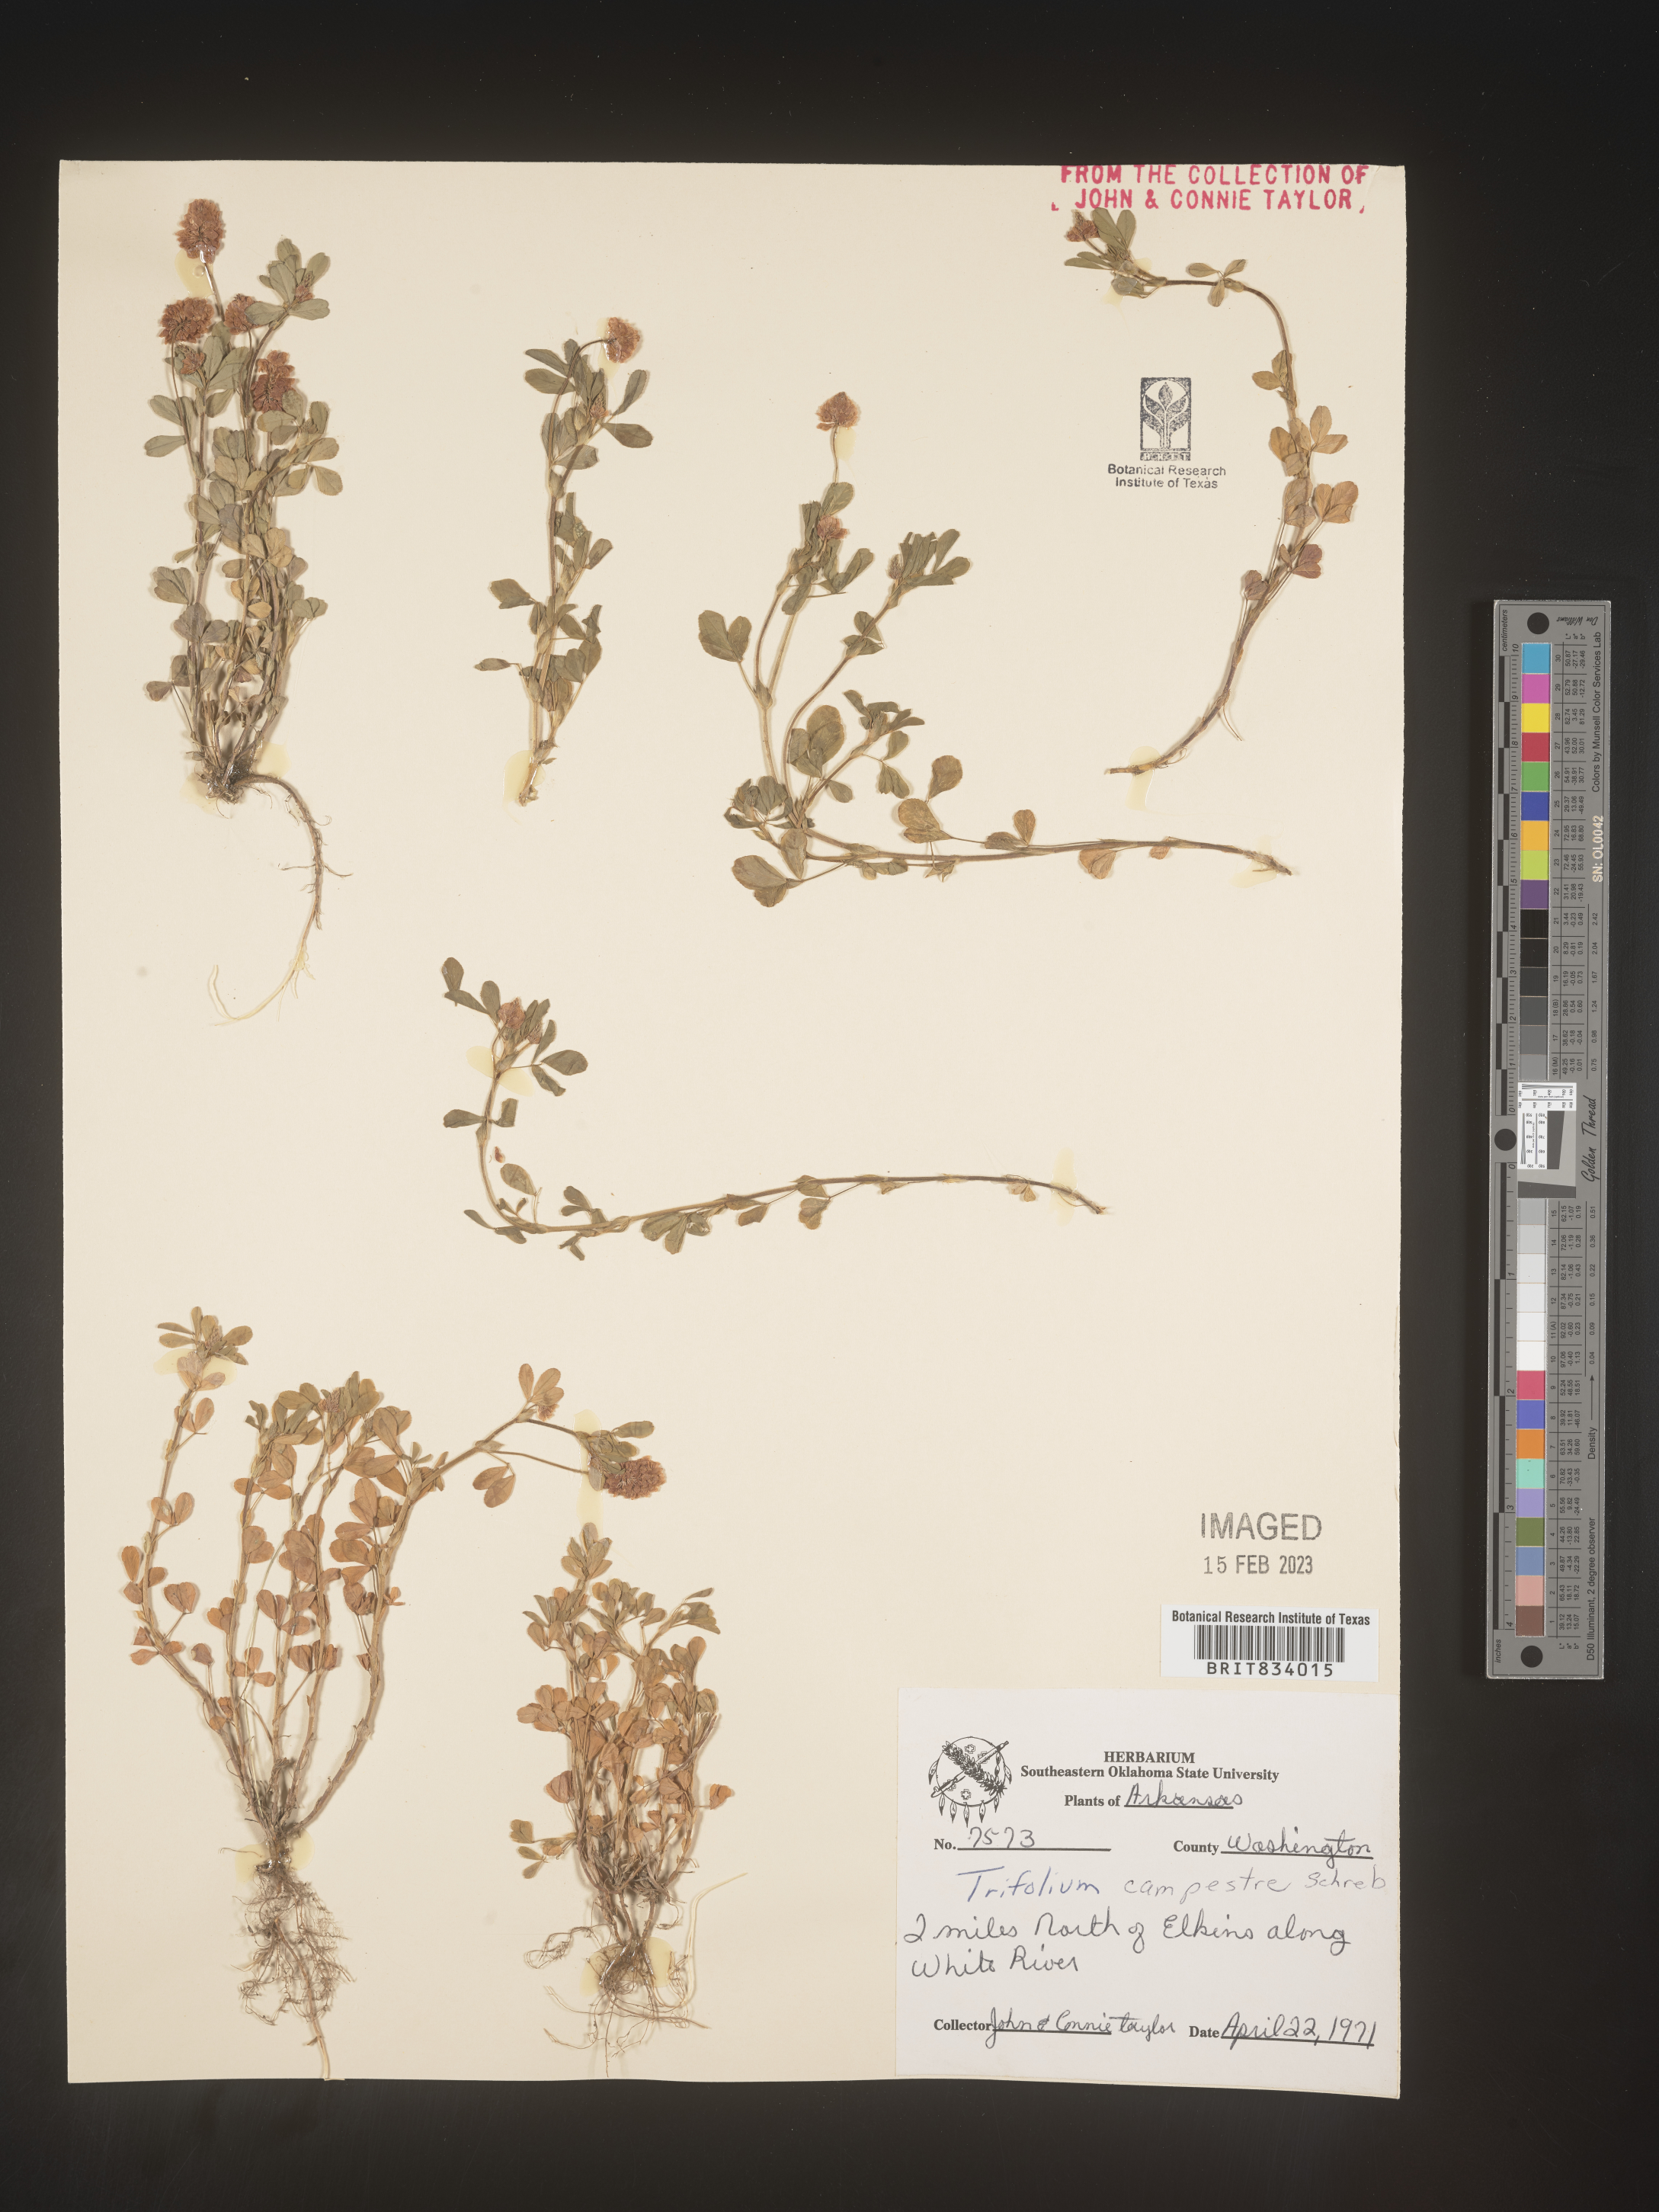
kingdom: Plantae
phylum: Tracheophyta
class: Magnoliopsida
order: Fabales
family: Fabaceae
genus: Trifolium
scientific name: Trifolium campestre
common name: Field clover
